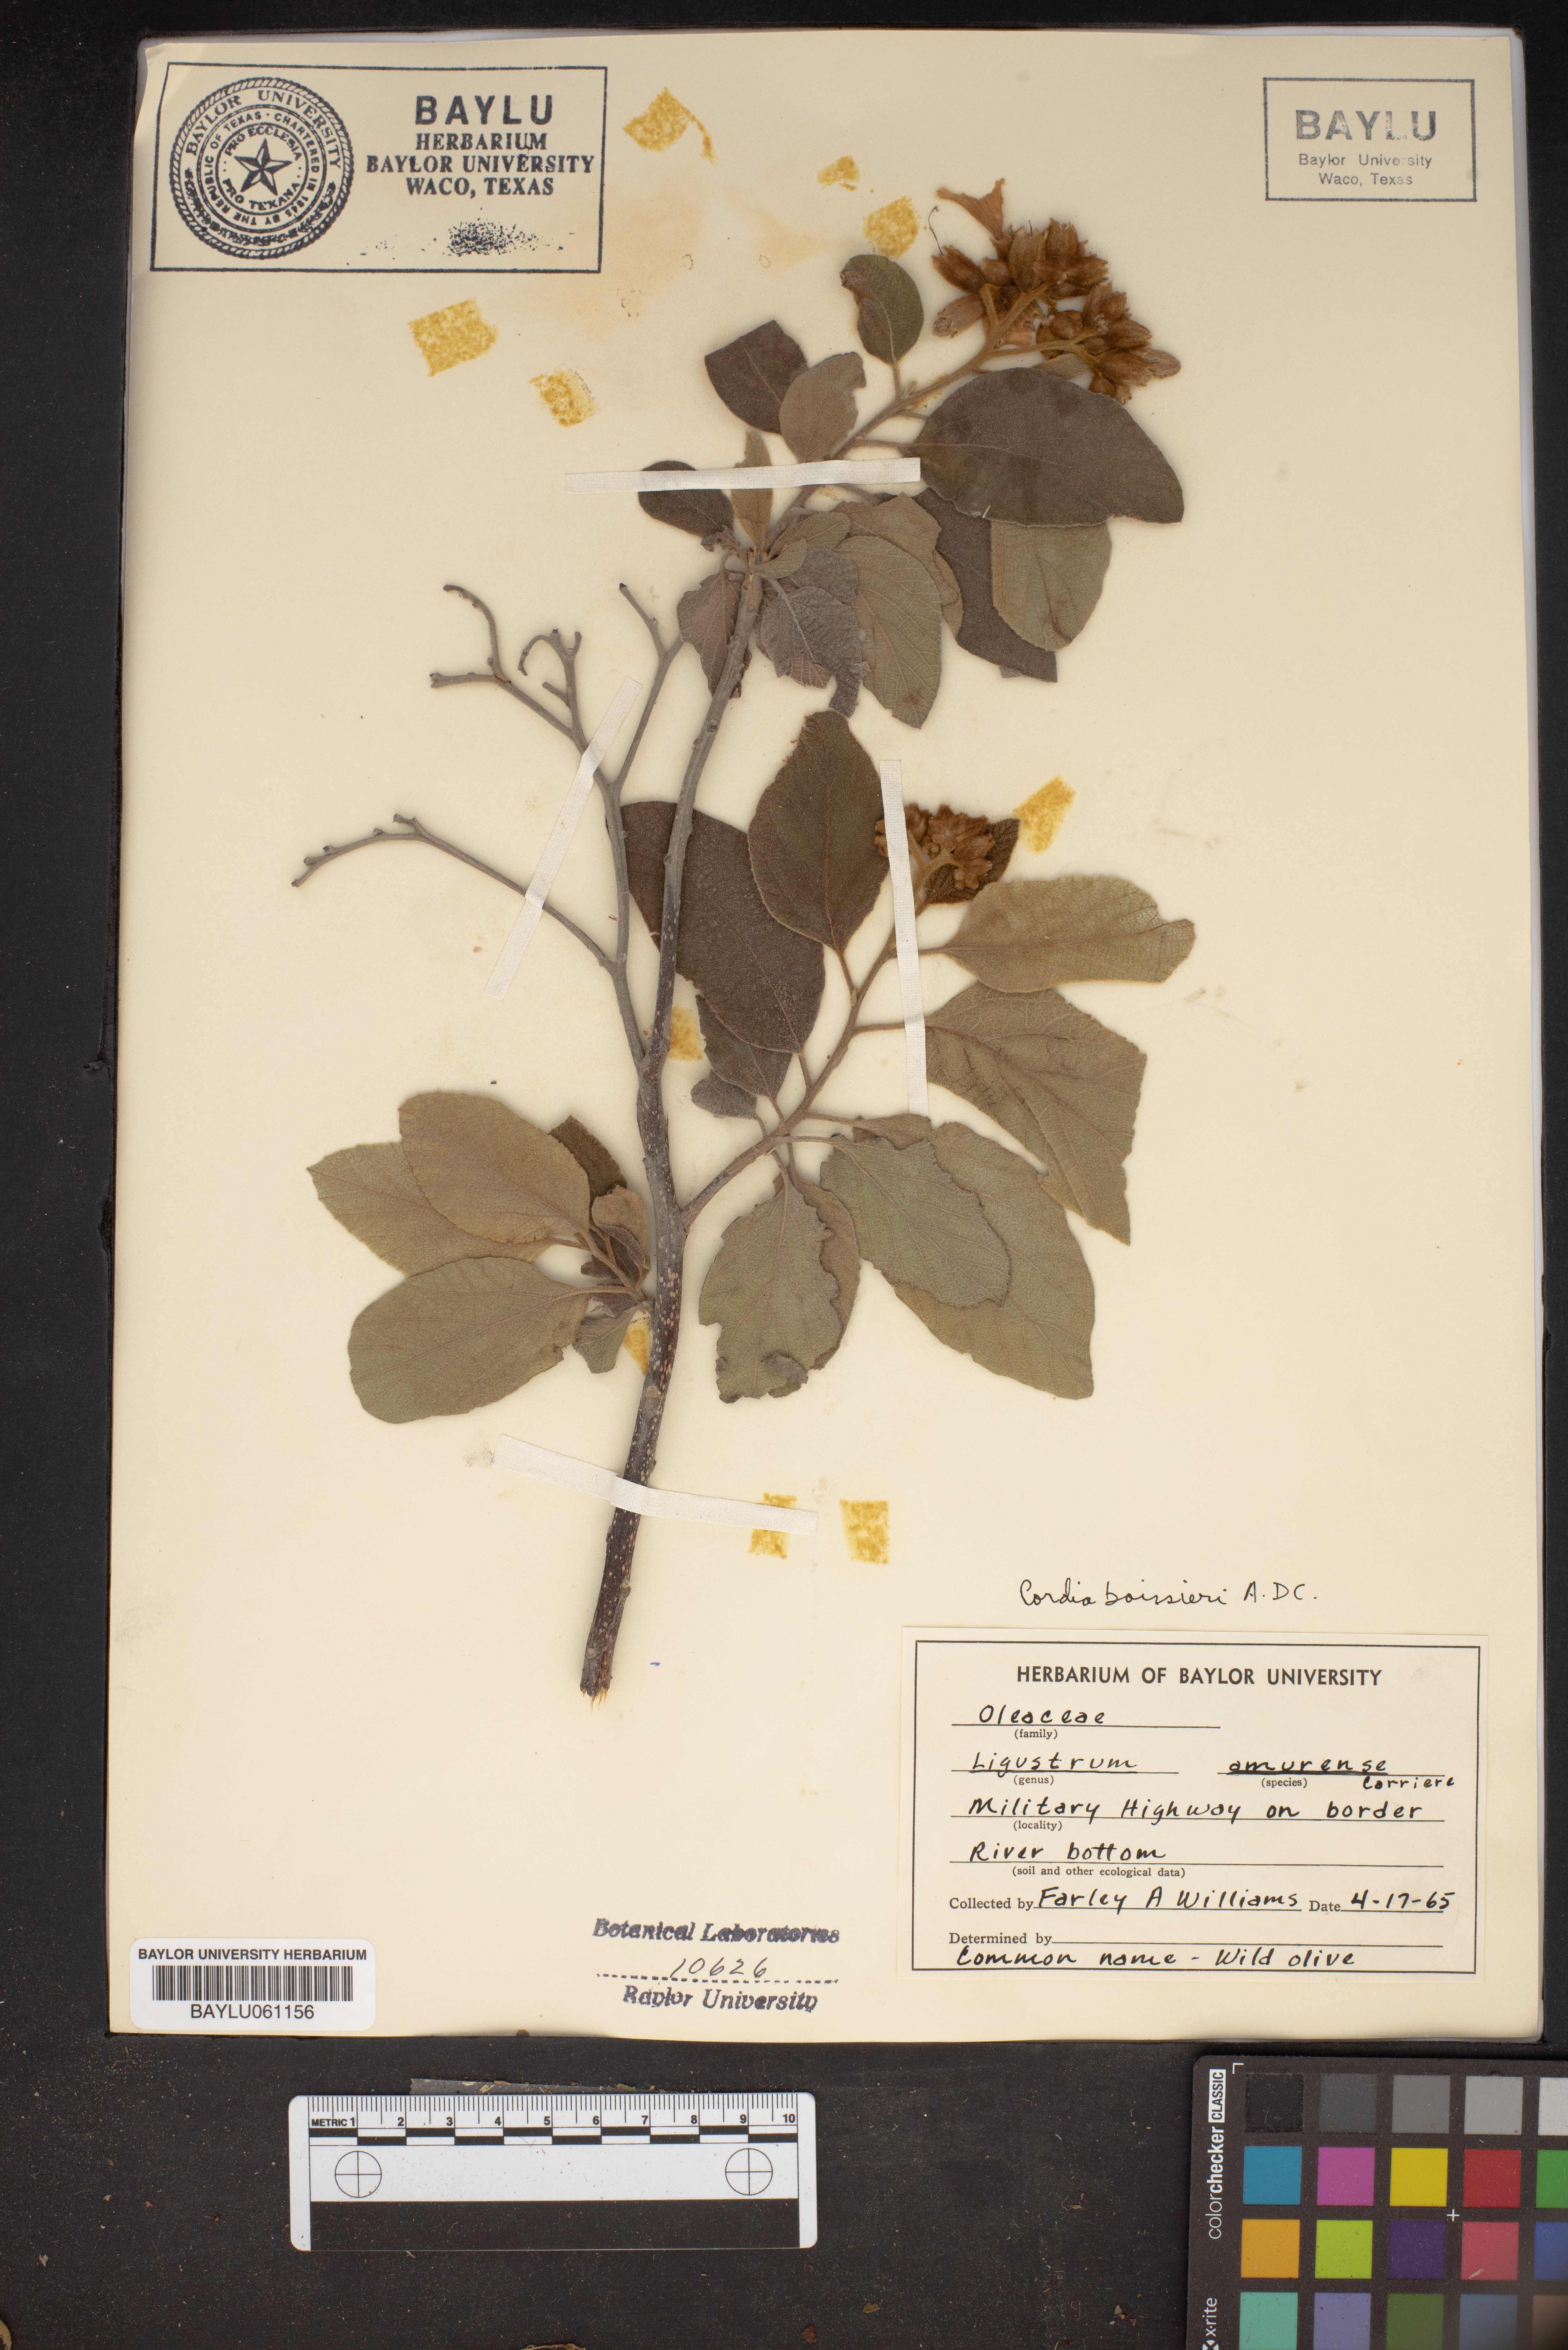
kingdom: Plantae
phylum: Tracheophyta
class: Magnoliopsida
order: Lamiales
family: Oleaceae
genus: Ligustrum
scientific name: Ligustrum obtusifolium
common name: Border privet
